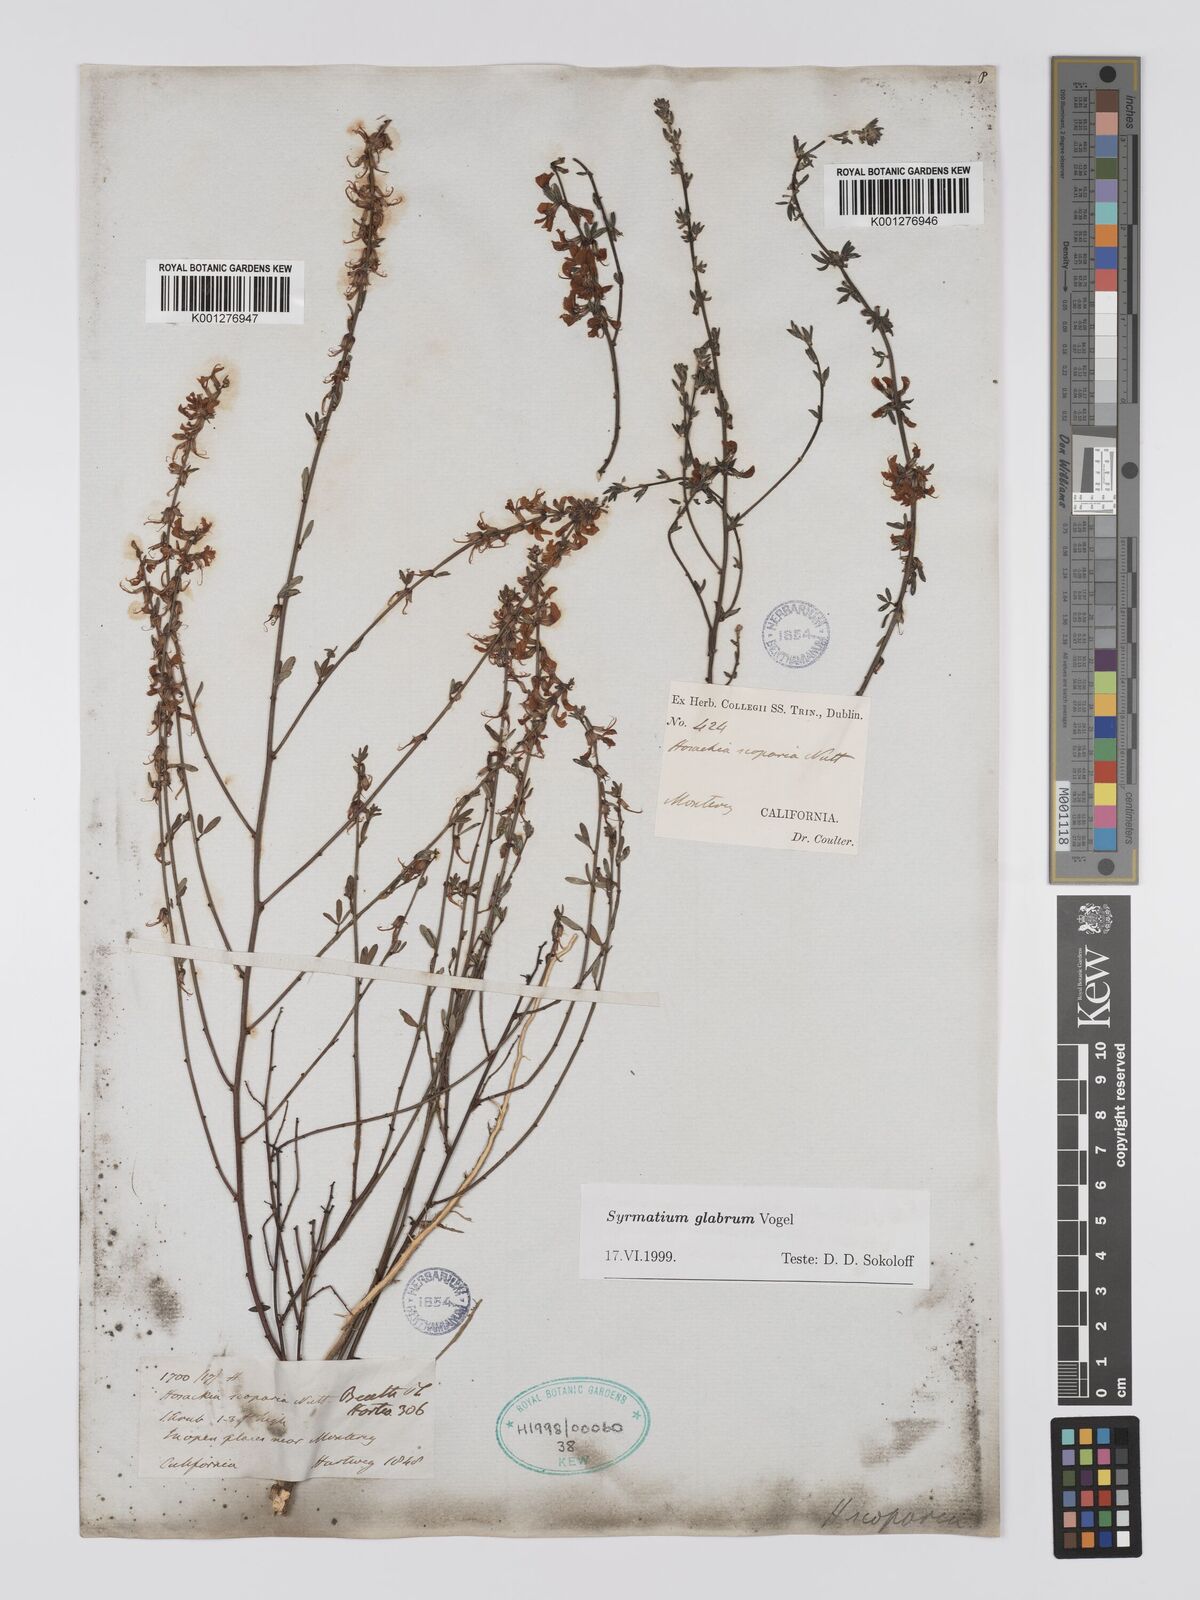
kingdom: Plantae
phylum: Tracheophyta
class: Magnoliopsida
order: Fabales
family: Fabaceae
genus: Acmispon
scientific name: Acmispon glaber
